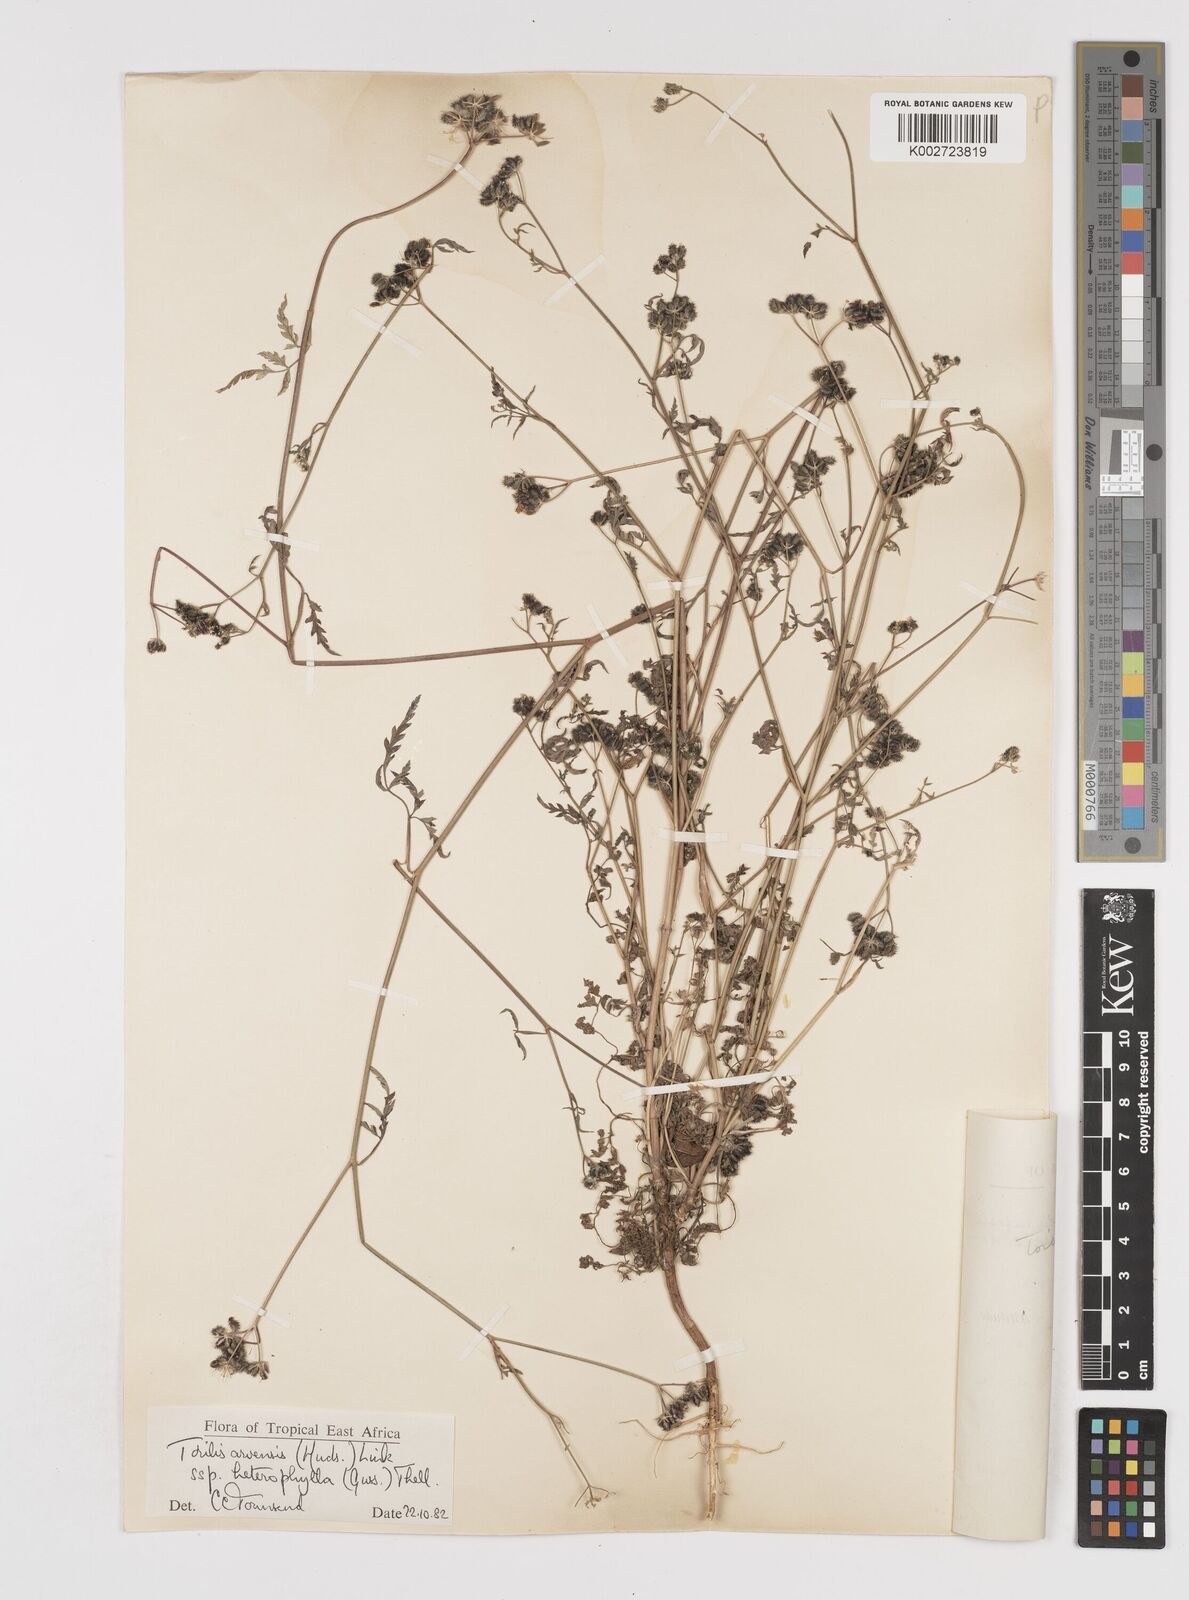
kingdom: Plantae
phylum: Tracheophyta
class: Magnoliopsida
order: Apiales
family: Apiaceae
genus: Torilis
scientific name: Torilis arvensis
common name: Spreading hedge-parsley
